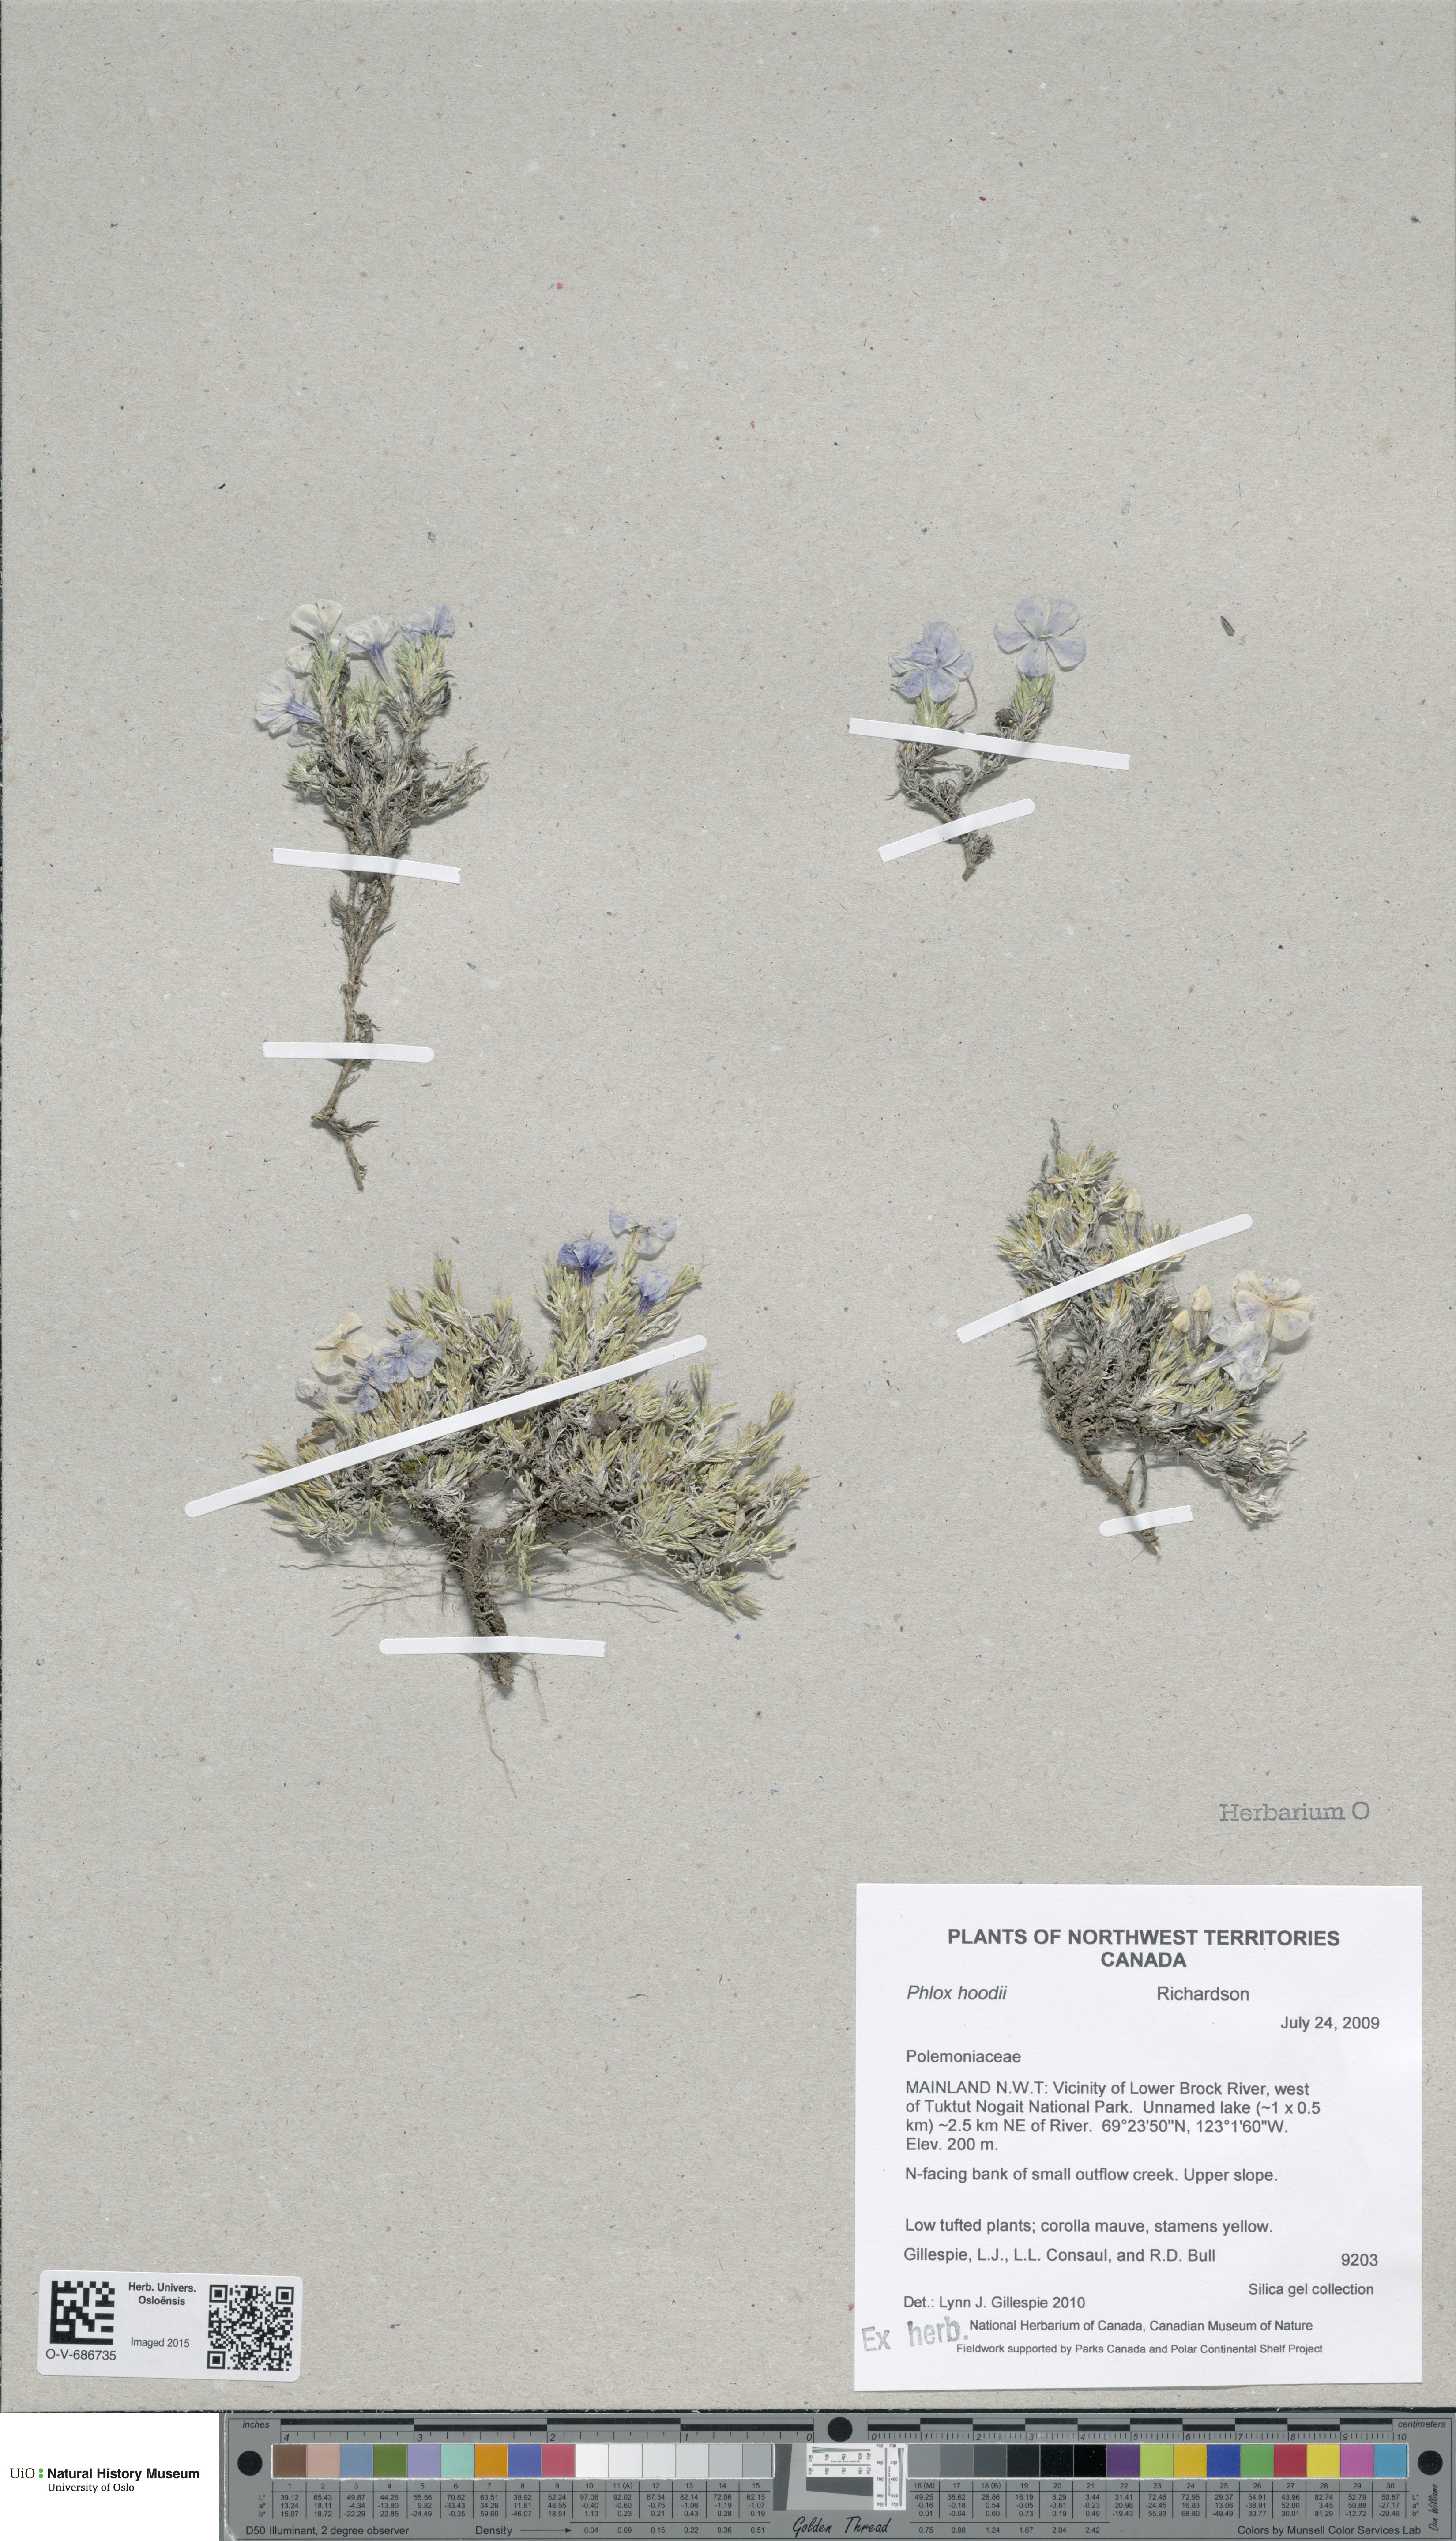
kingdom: Plantae
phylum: Tracheophyta
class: Magnoliopsida
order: Ericales
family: Polemoniaceae
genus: Phlox
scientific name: Phlox hoodii
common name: Moss phlox
